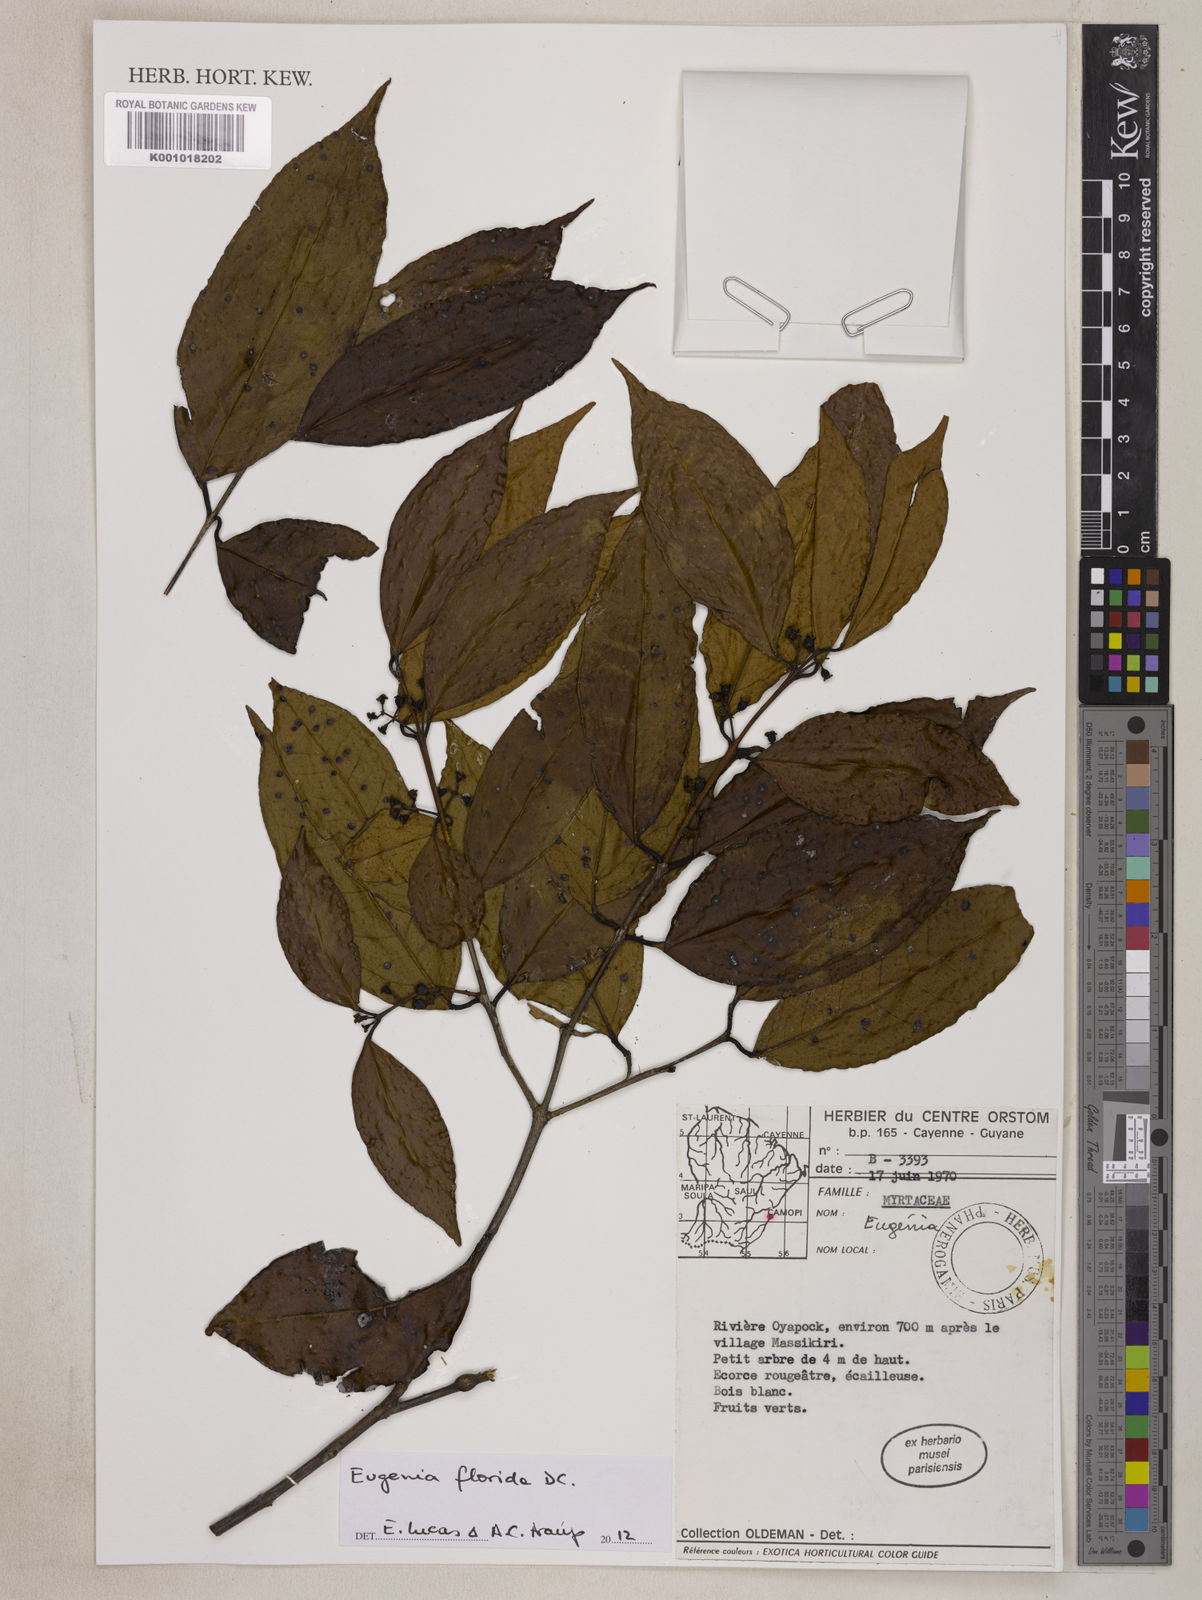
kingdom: Plantae
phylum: Tracheophyta
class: Magnoliopsida
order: Myrtales
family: Myrtaceae
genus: Eugenia
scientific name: Eugenia florida
